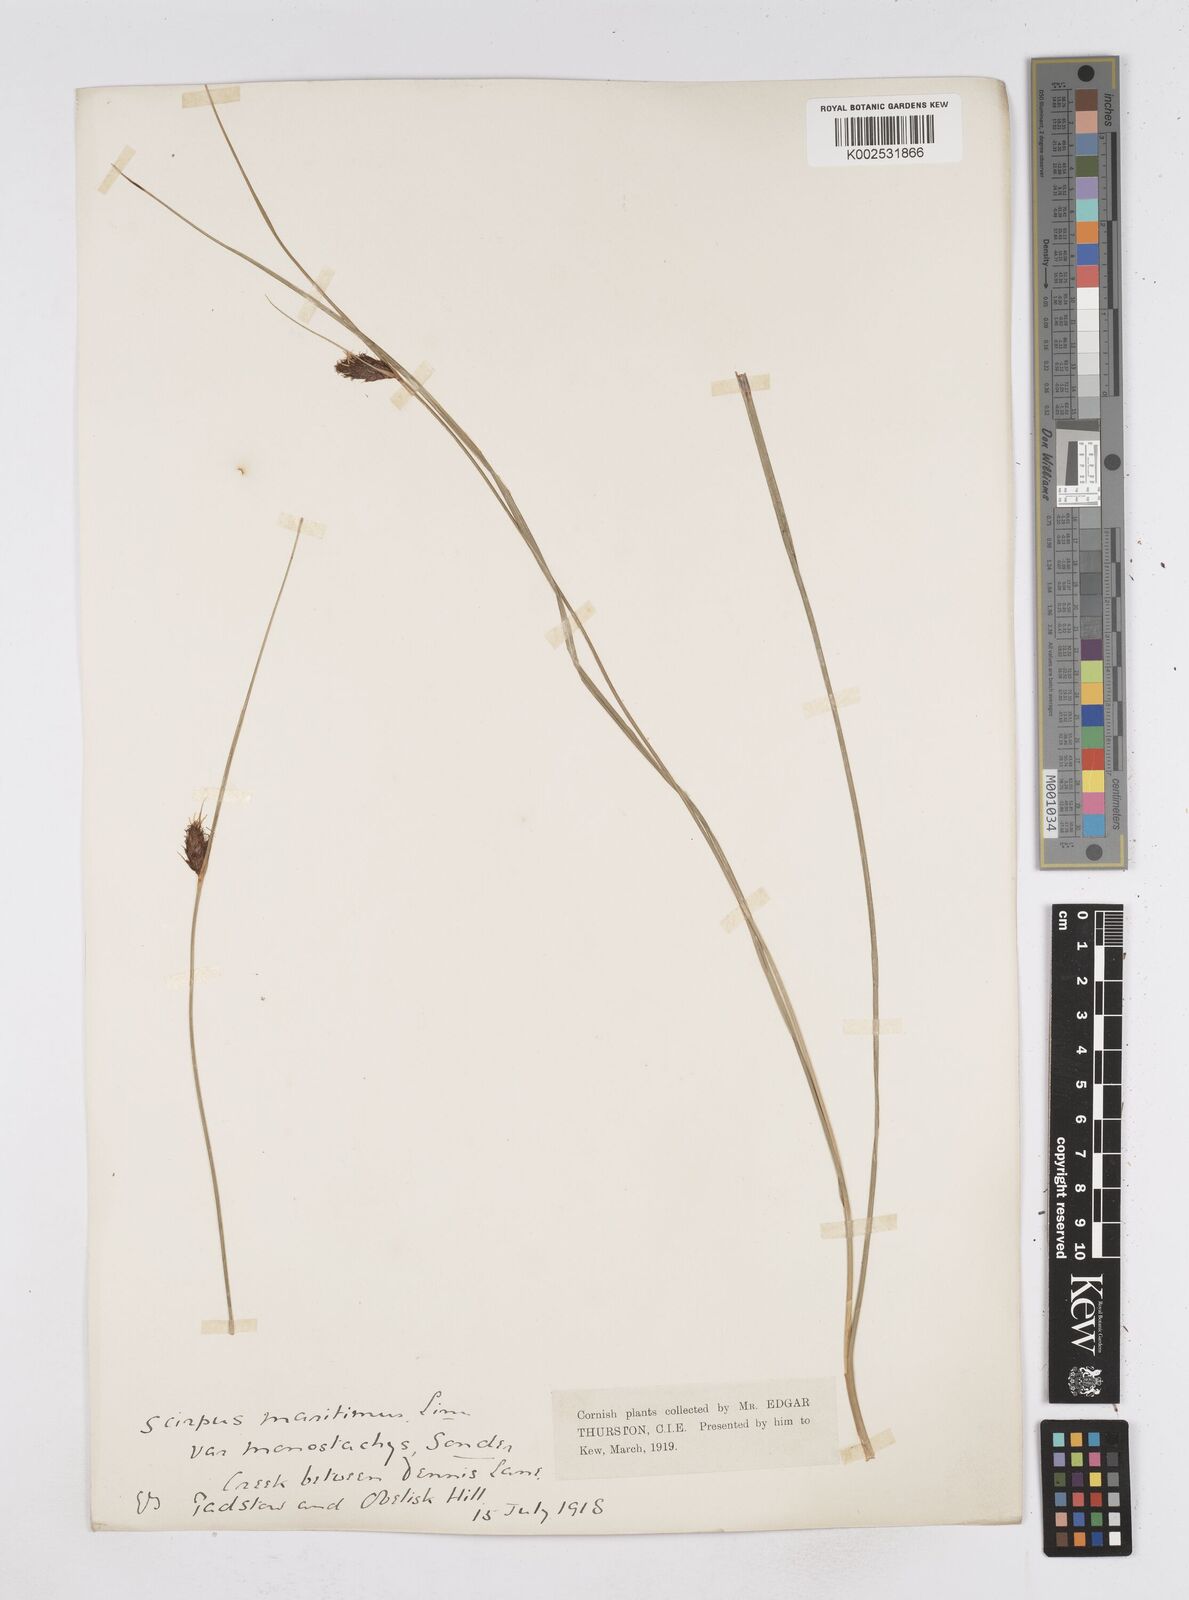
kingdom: Plantae
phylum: Tracheophyta
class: Liliopsida
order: Poales
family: Cyperaceae
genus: Bolboschoenus
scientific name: Bolboschoenus maritimus
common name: Sea club-rush
